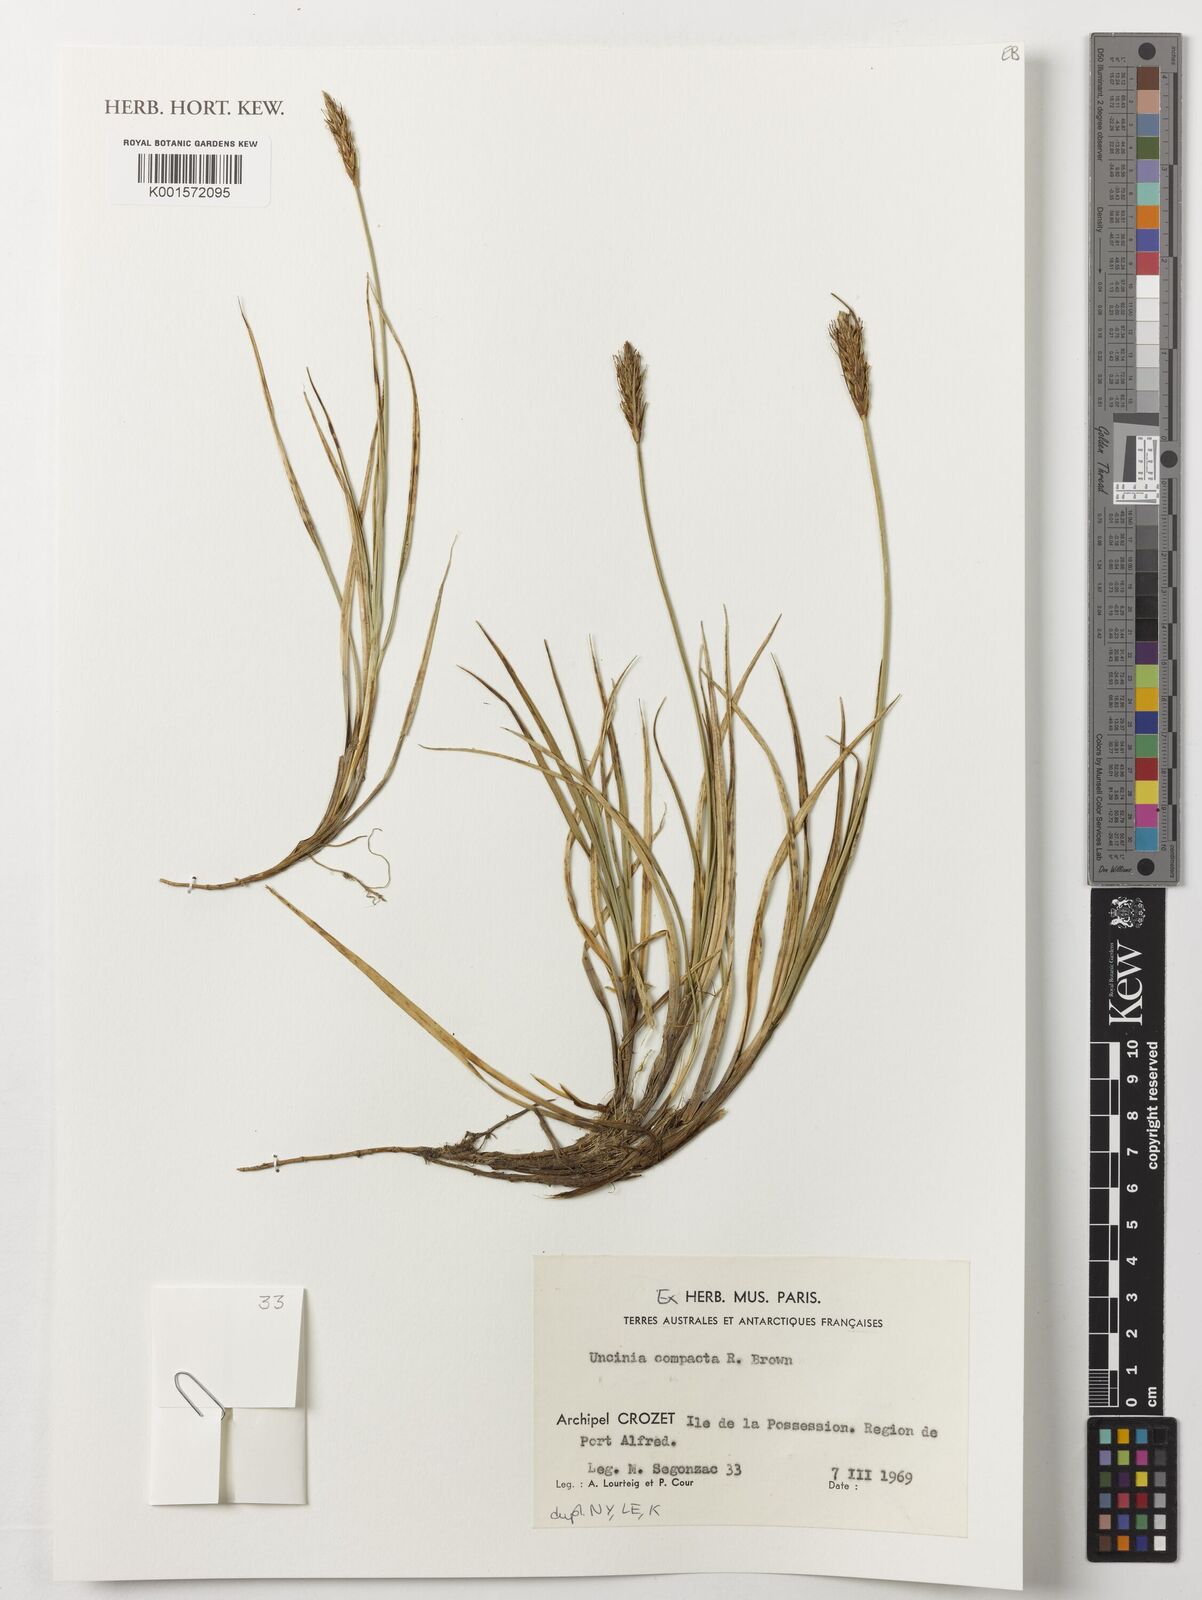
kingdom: Plantae
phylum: Tracheophyta
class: Liliopsida
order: Poales
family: Cyperaceae
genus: Carex
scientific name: Carex austrocompacta
